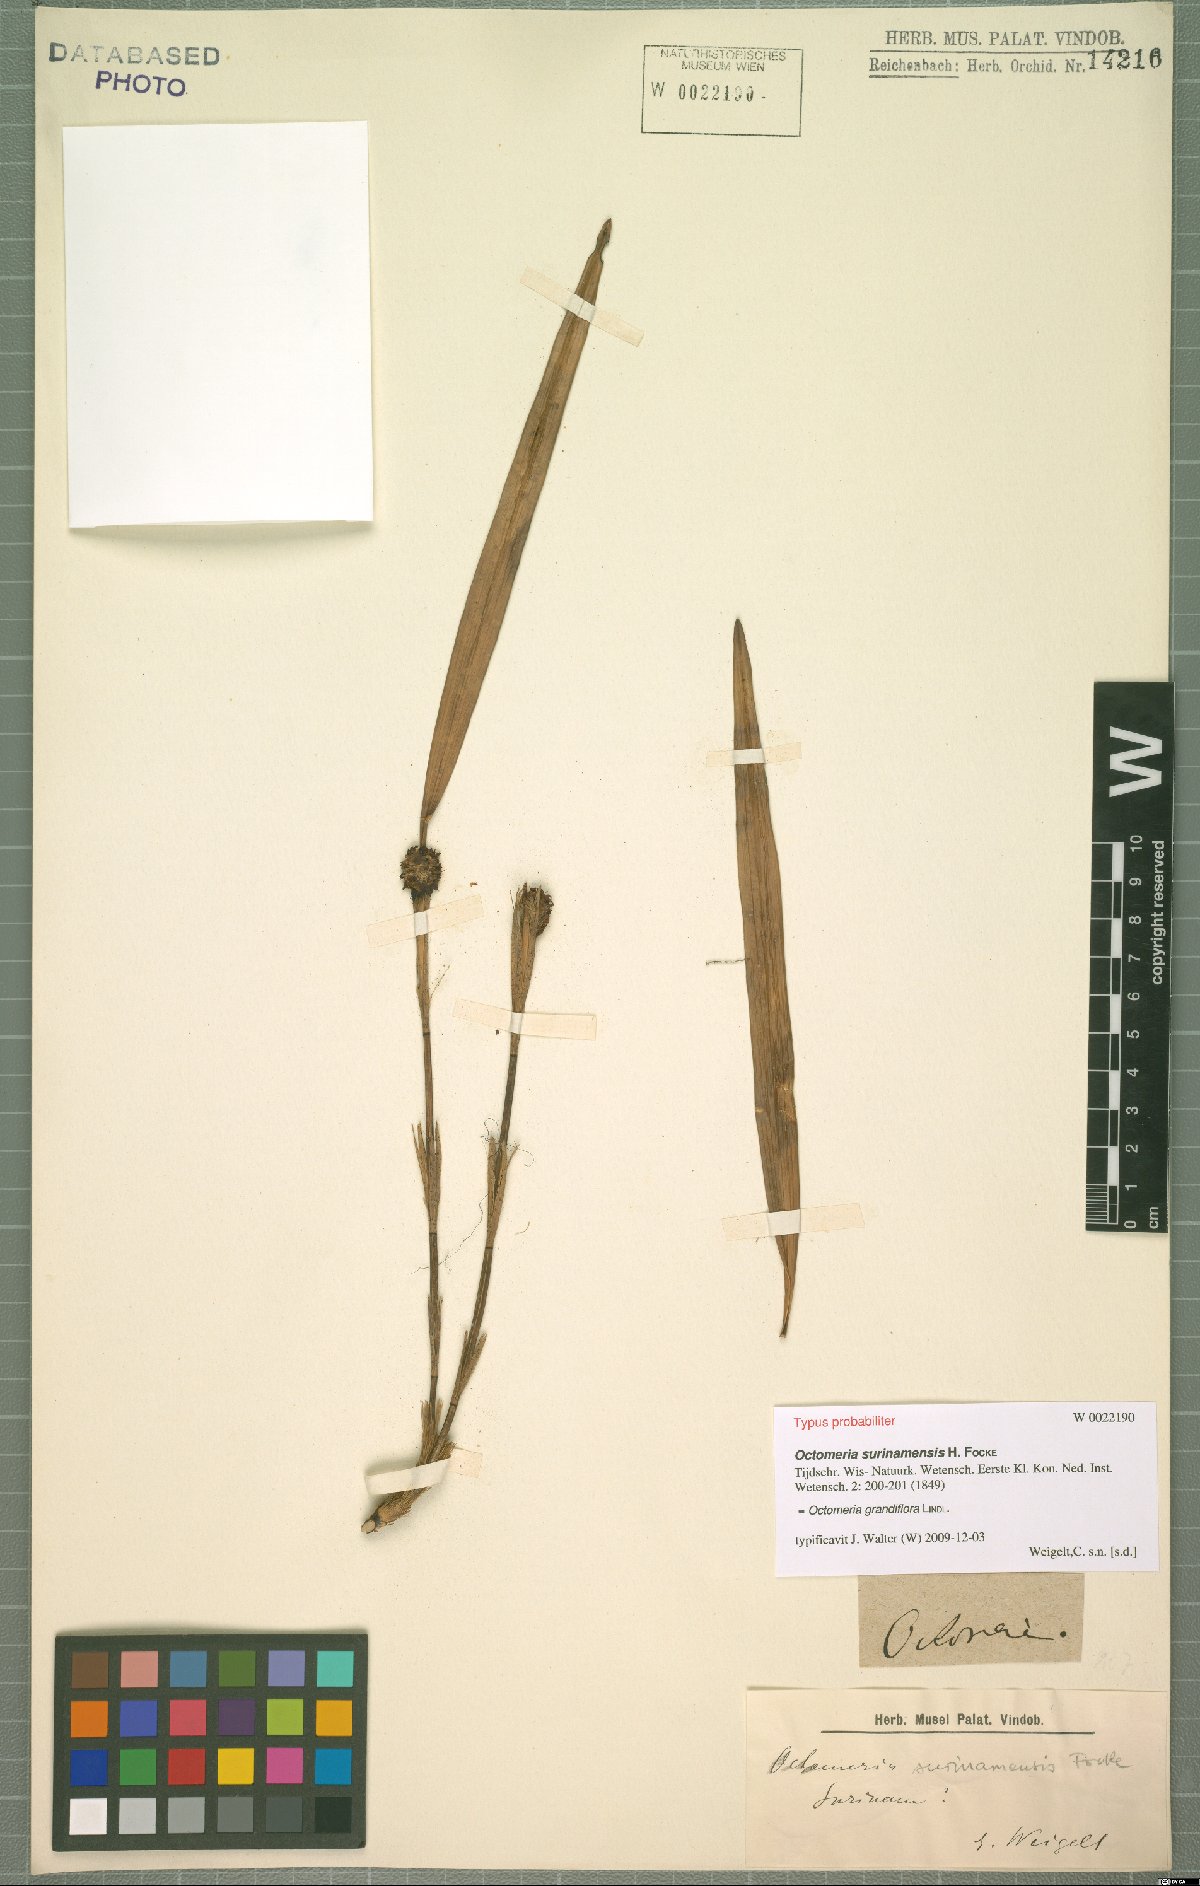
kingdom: Plantae
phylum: Tracheophyta
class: Liliopsida
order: Asparagales
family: Orchidaceae
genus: Octomeria
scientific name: Octomeria grandiflora
